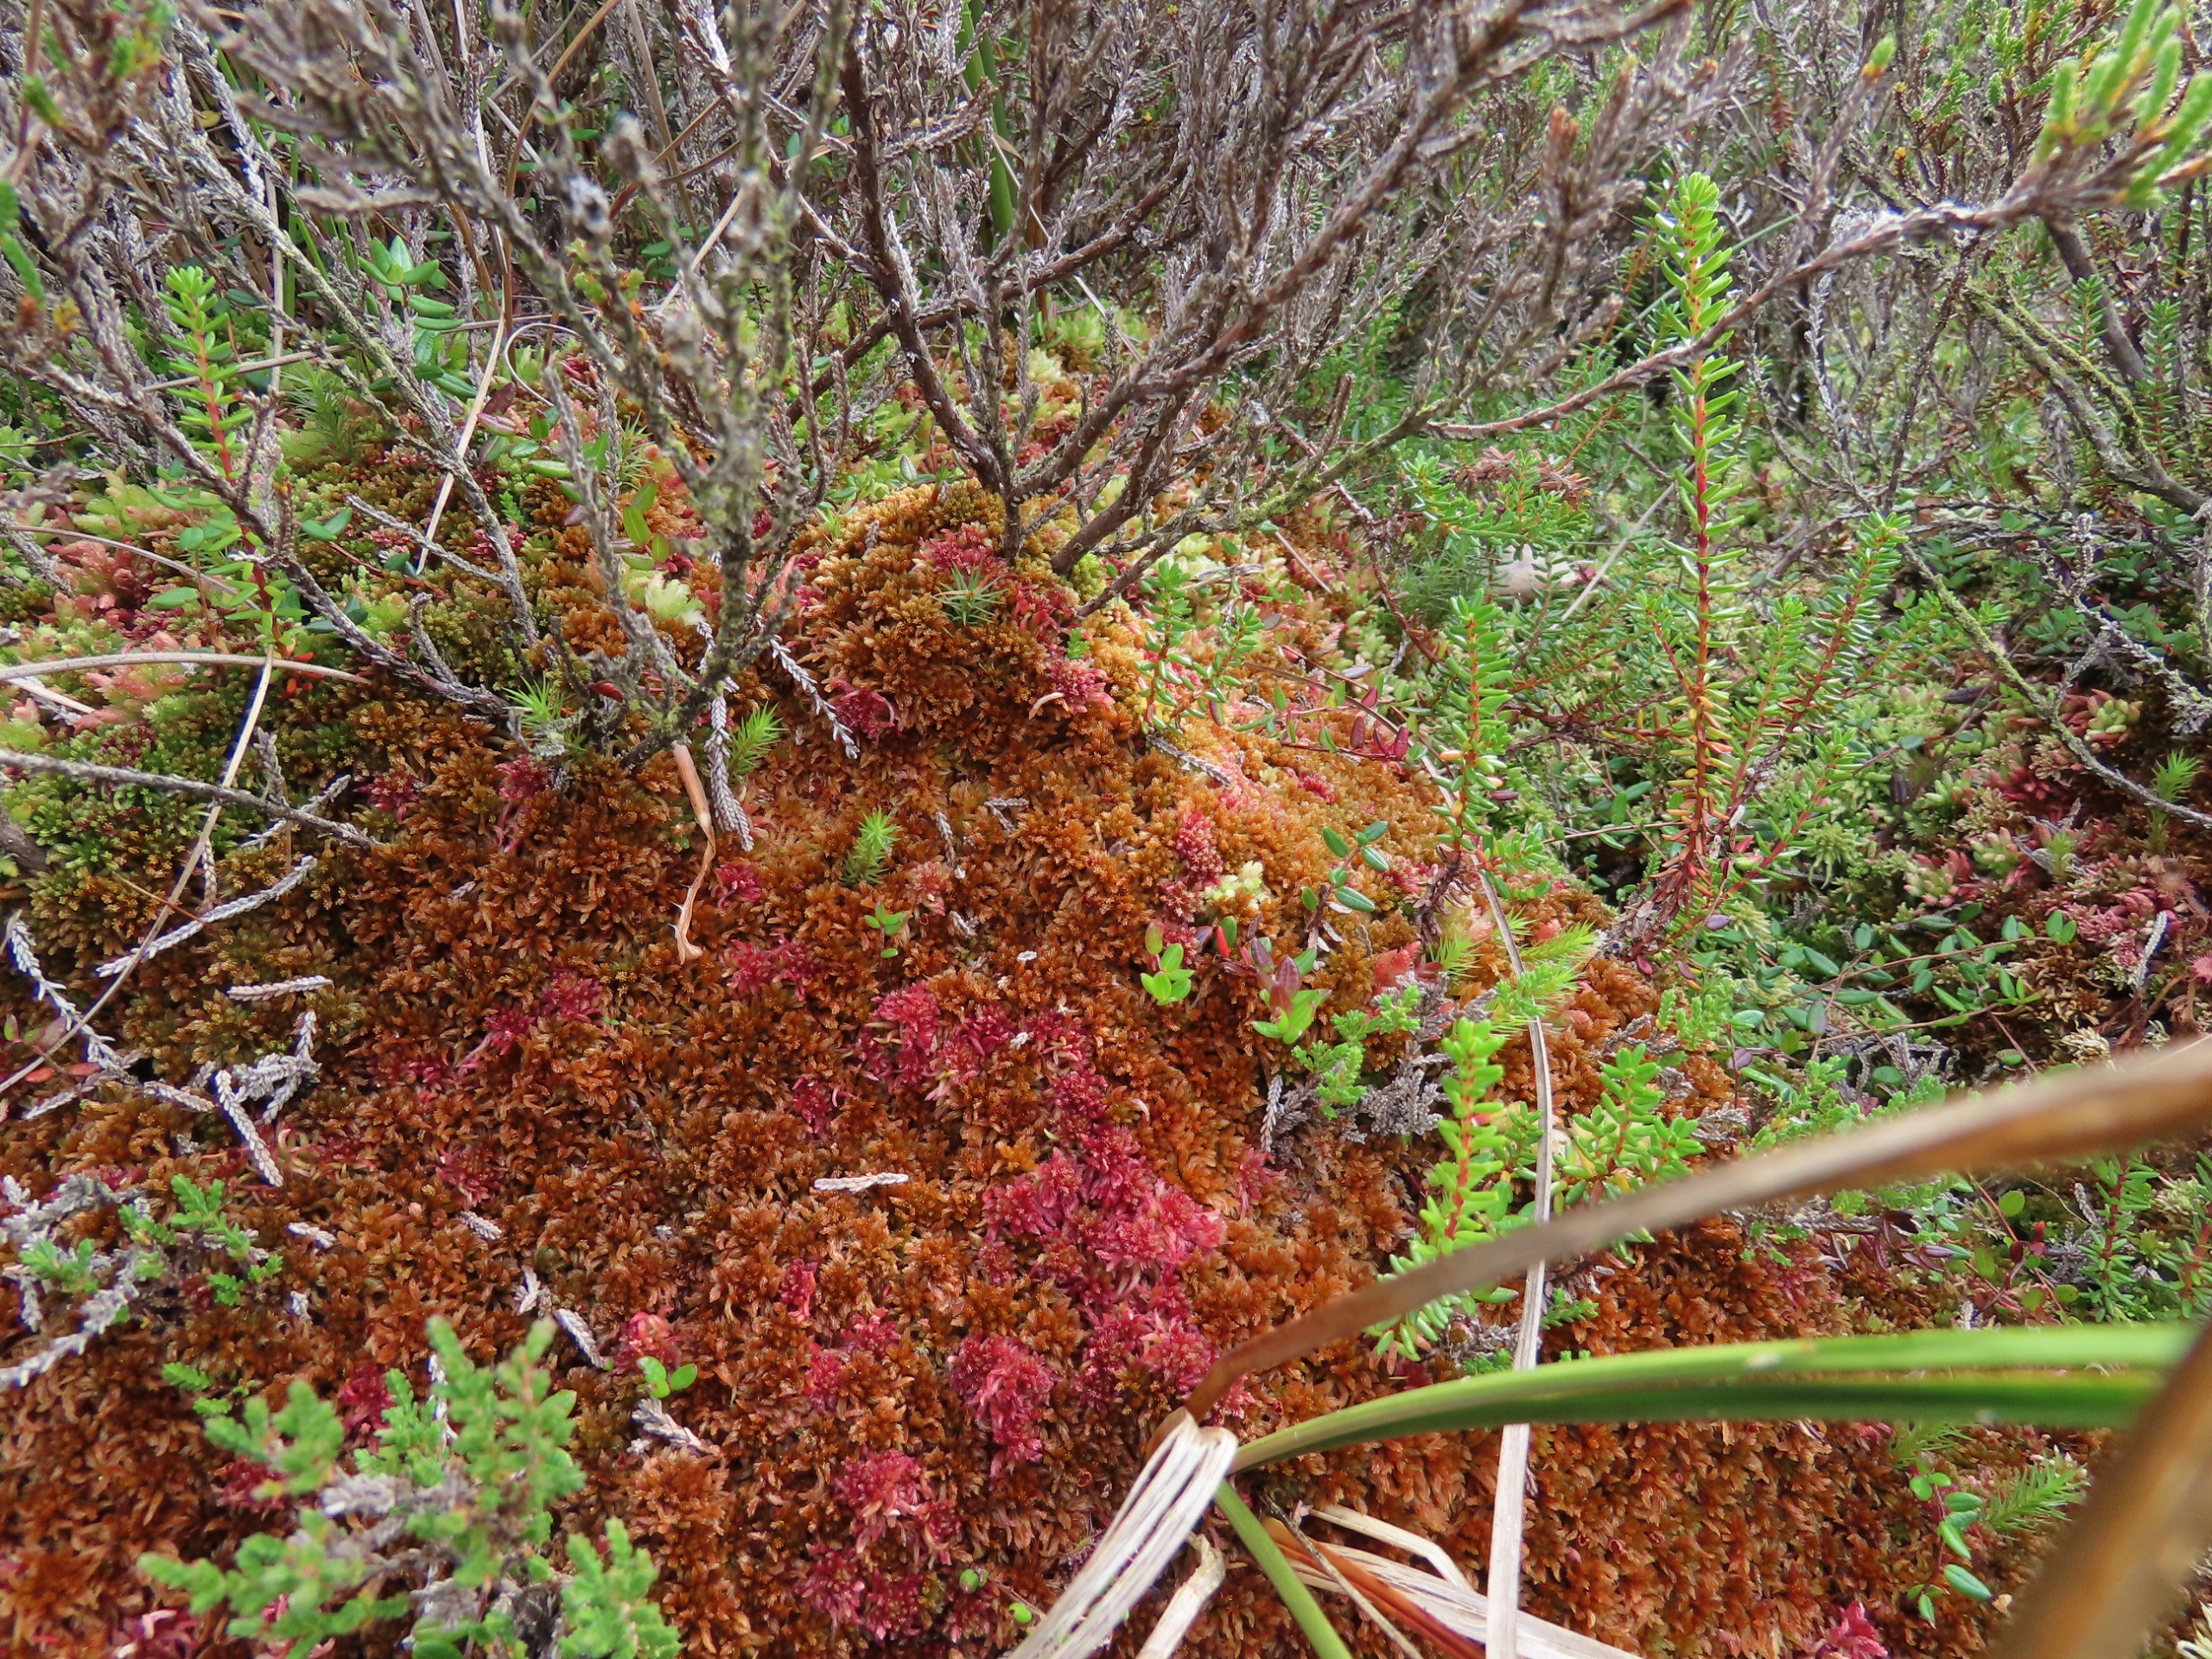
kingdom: Plantae
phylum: Bryophyta
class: Sphagnopsida
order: Sphagnales
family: Sphagnaceae
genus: Sphagnum
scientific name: Sphagnum fuscum
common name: Rustbrun tørvemos
